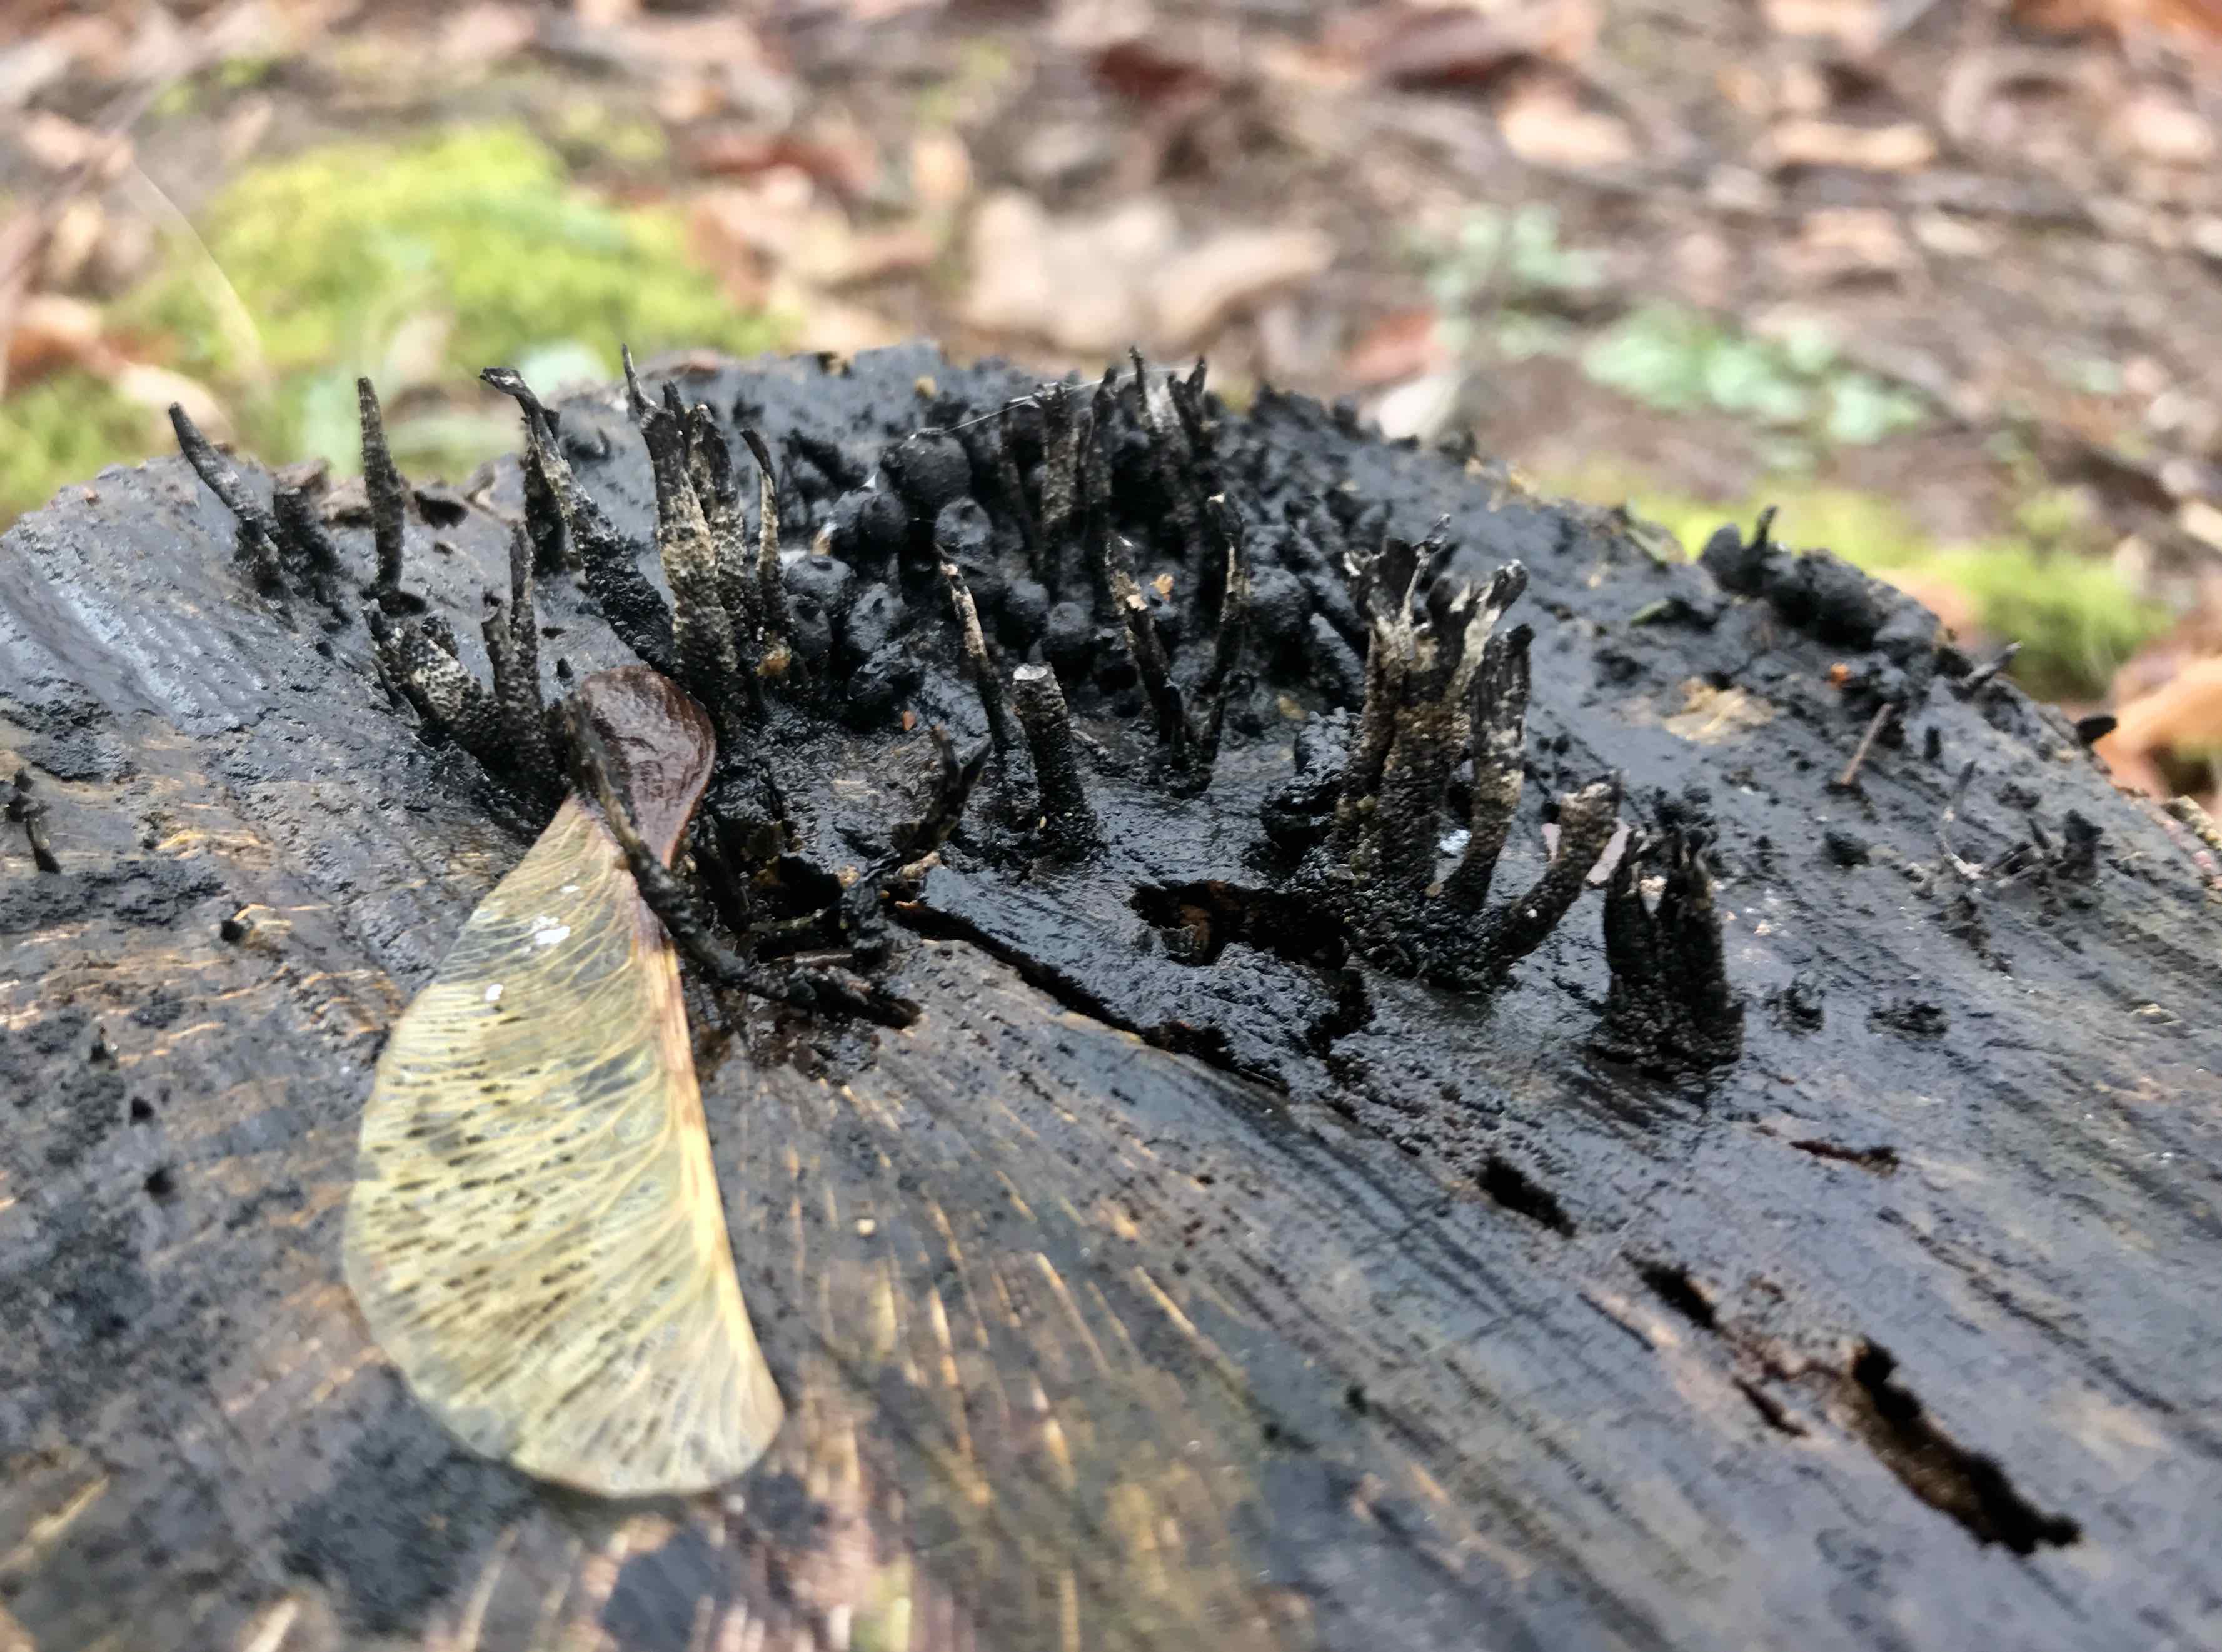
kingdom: Fungi
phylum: Ascomycota
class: Sordariomycetes
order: Xylariales
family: Xylariaceae
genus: Xylaria
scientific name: Xylaria hypoxylon
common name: grenet stødsvamp
